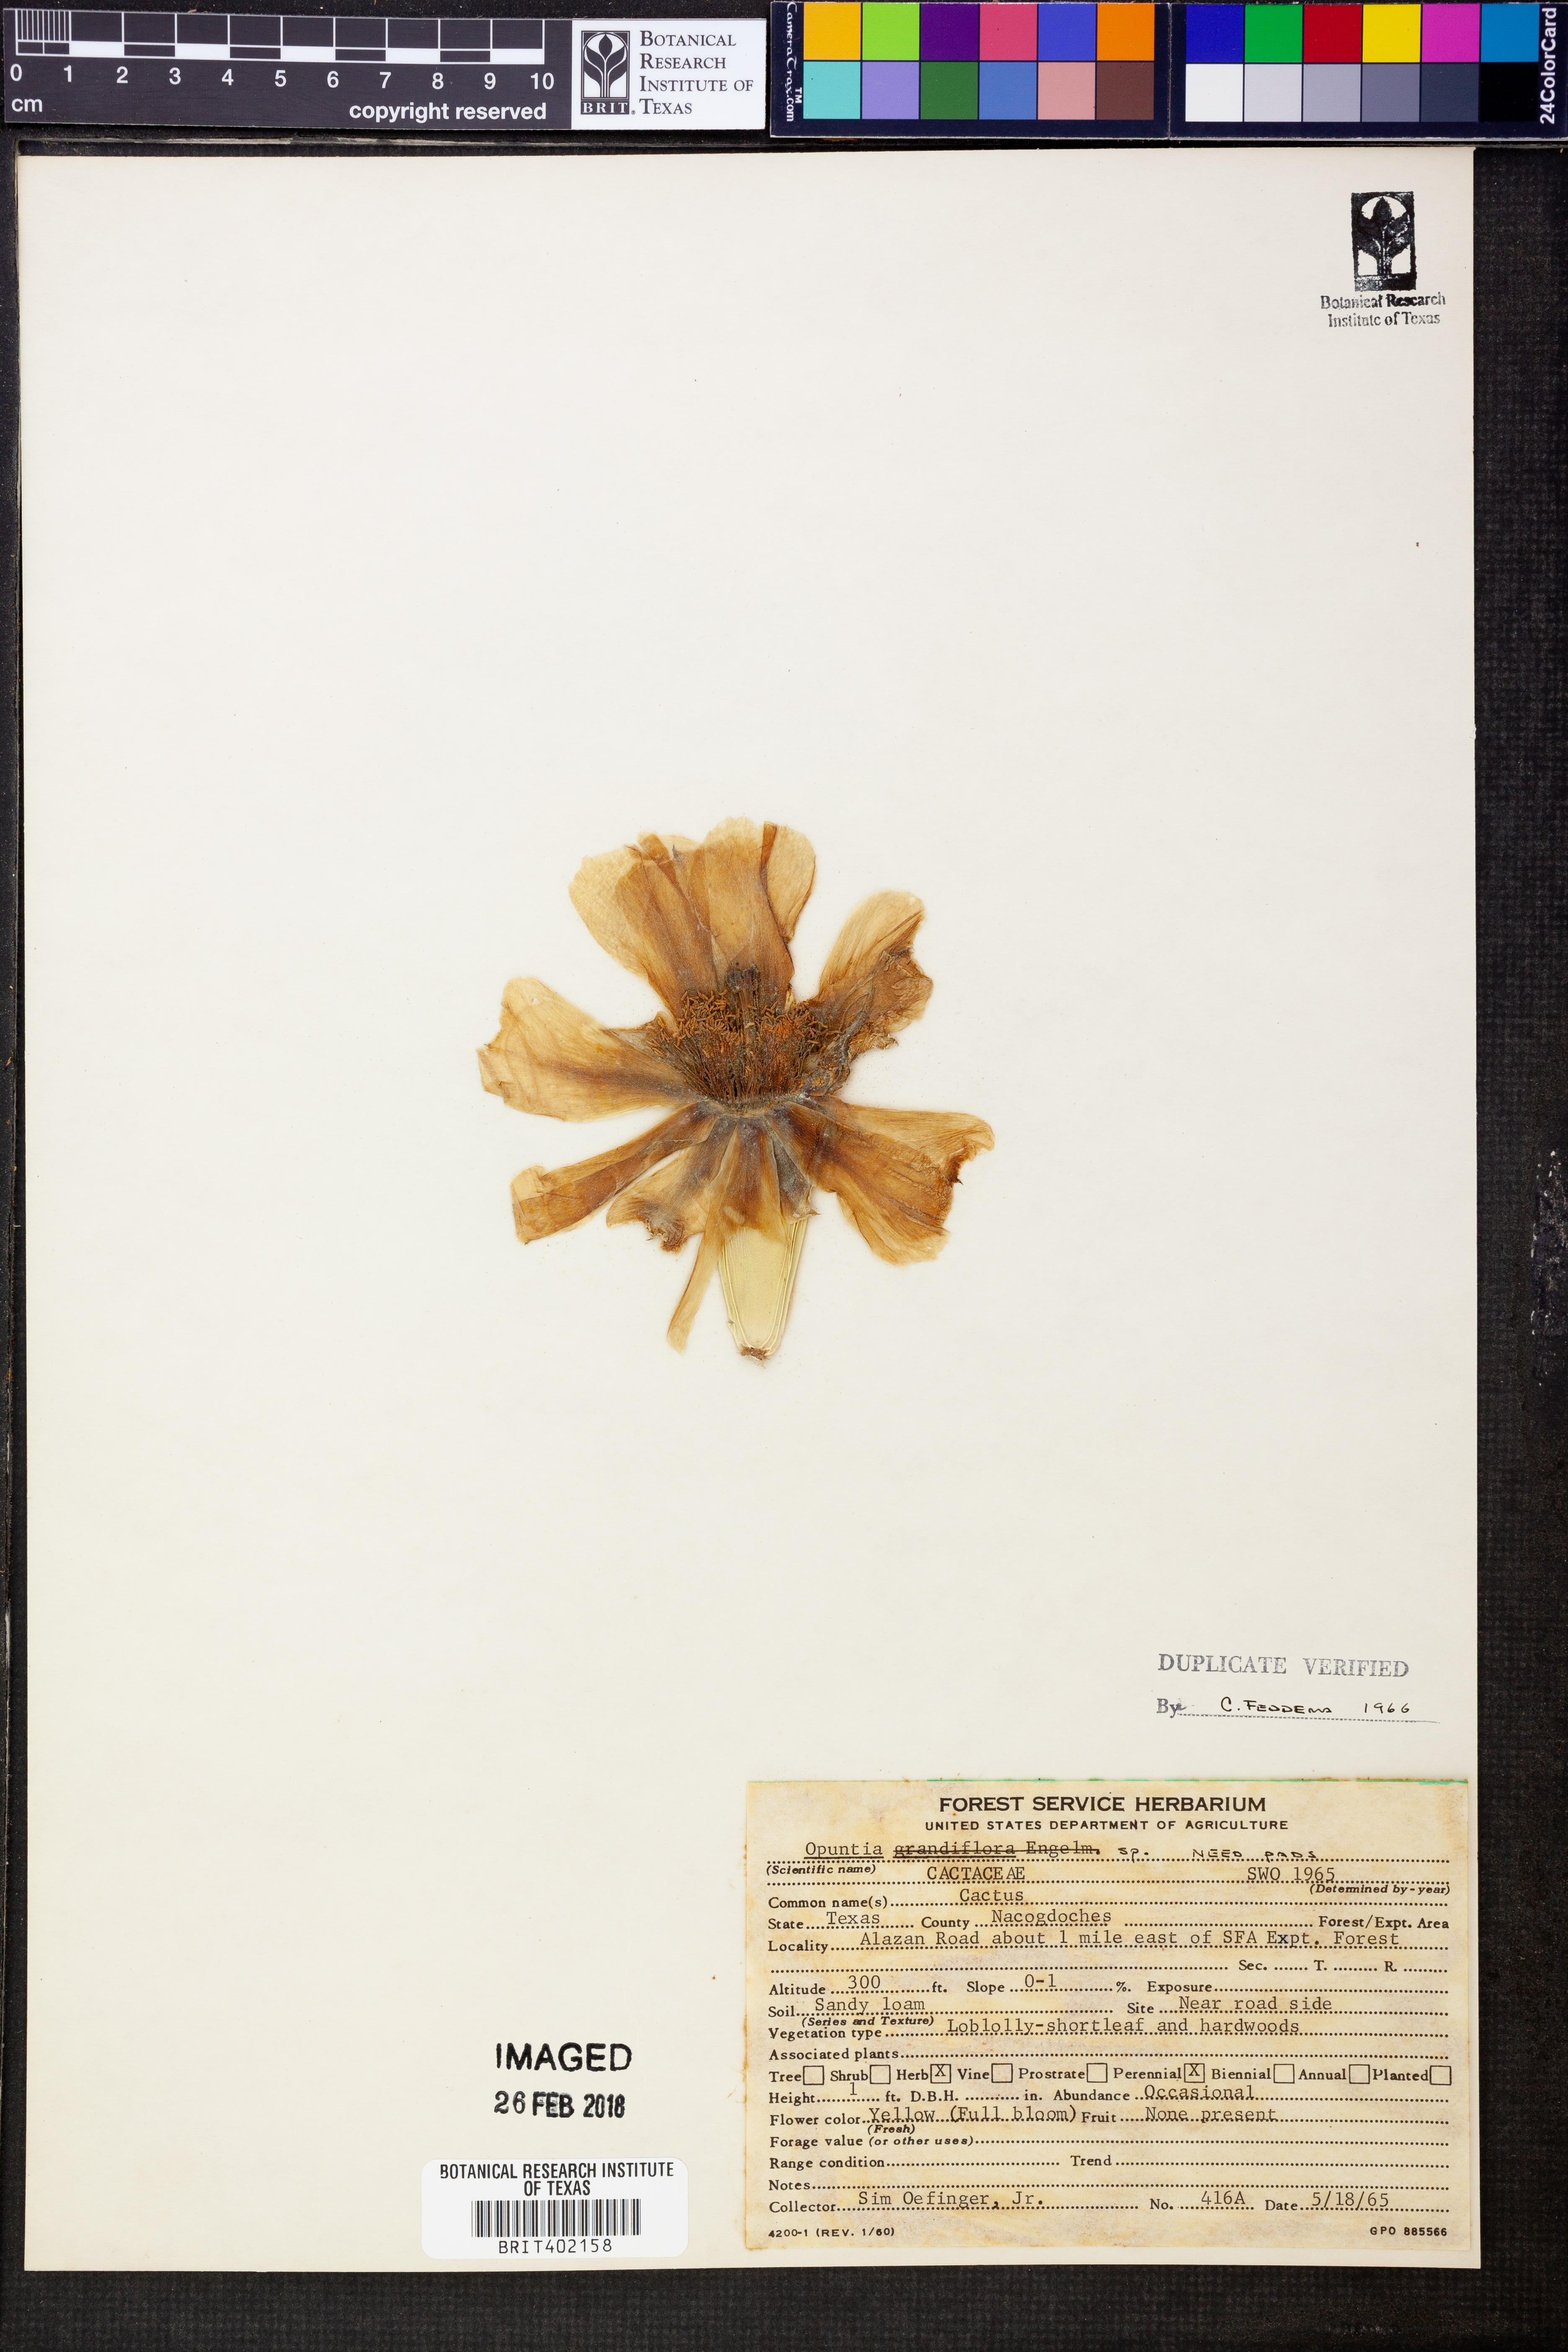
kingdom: Plantae
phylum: Tracheophyta
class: Magnoliopsida
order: Caryophyllales
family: Cactaceae
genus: Opuntia
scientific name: Opuntia
